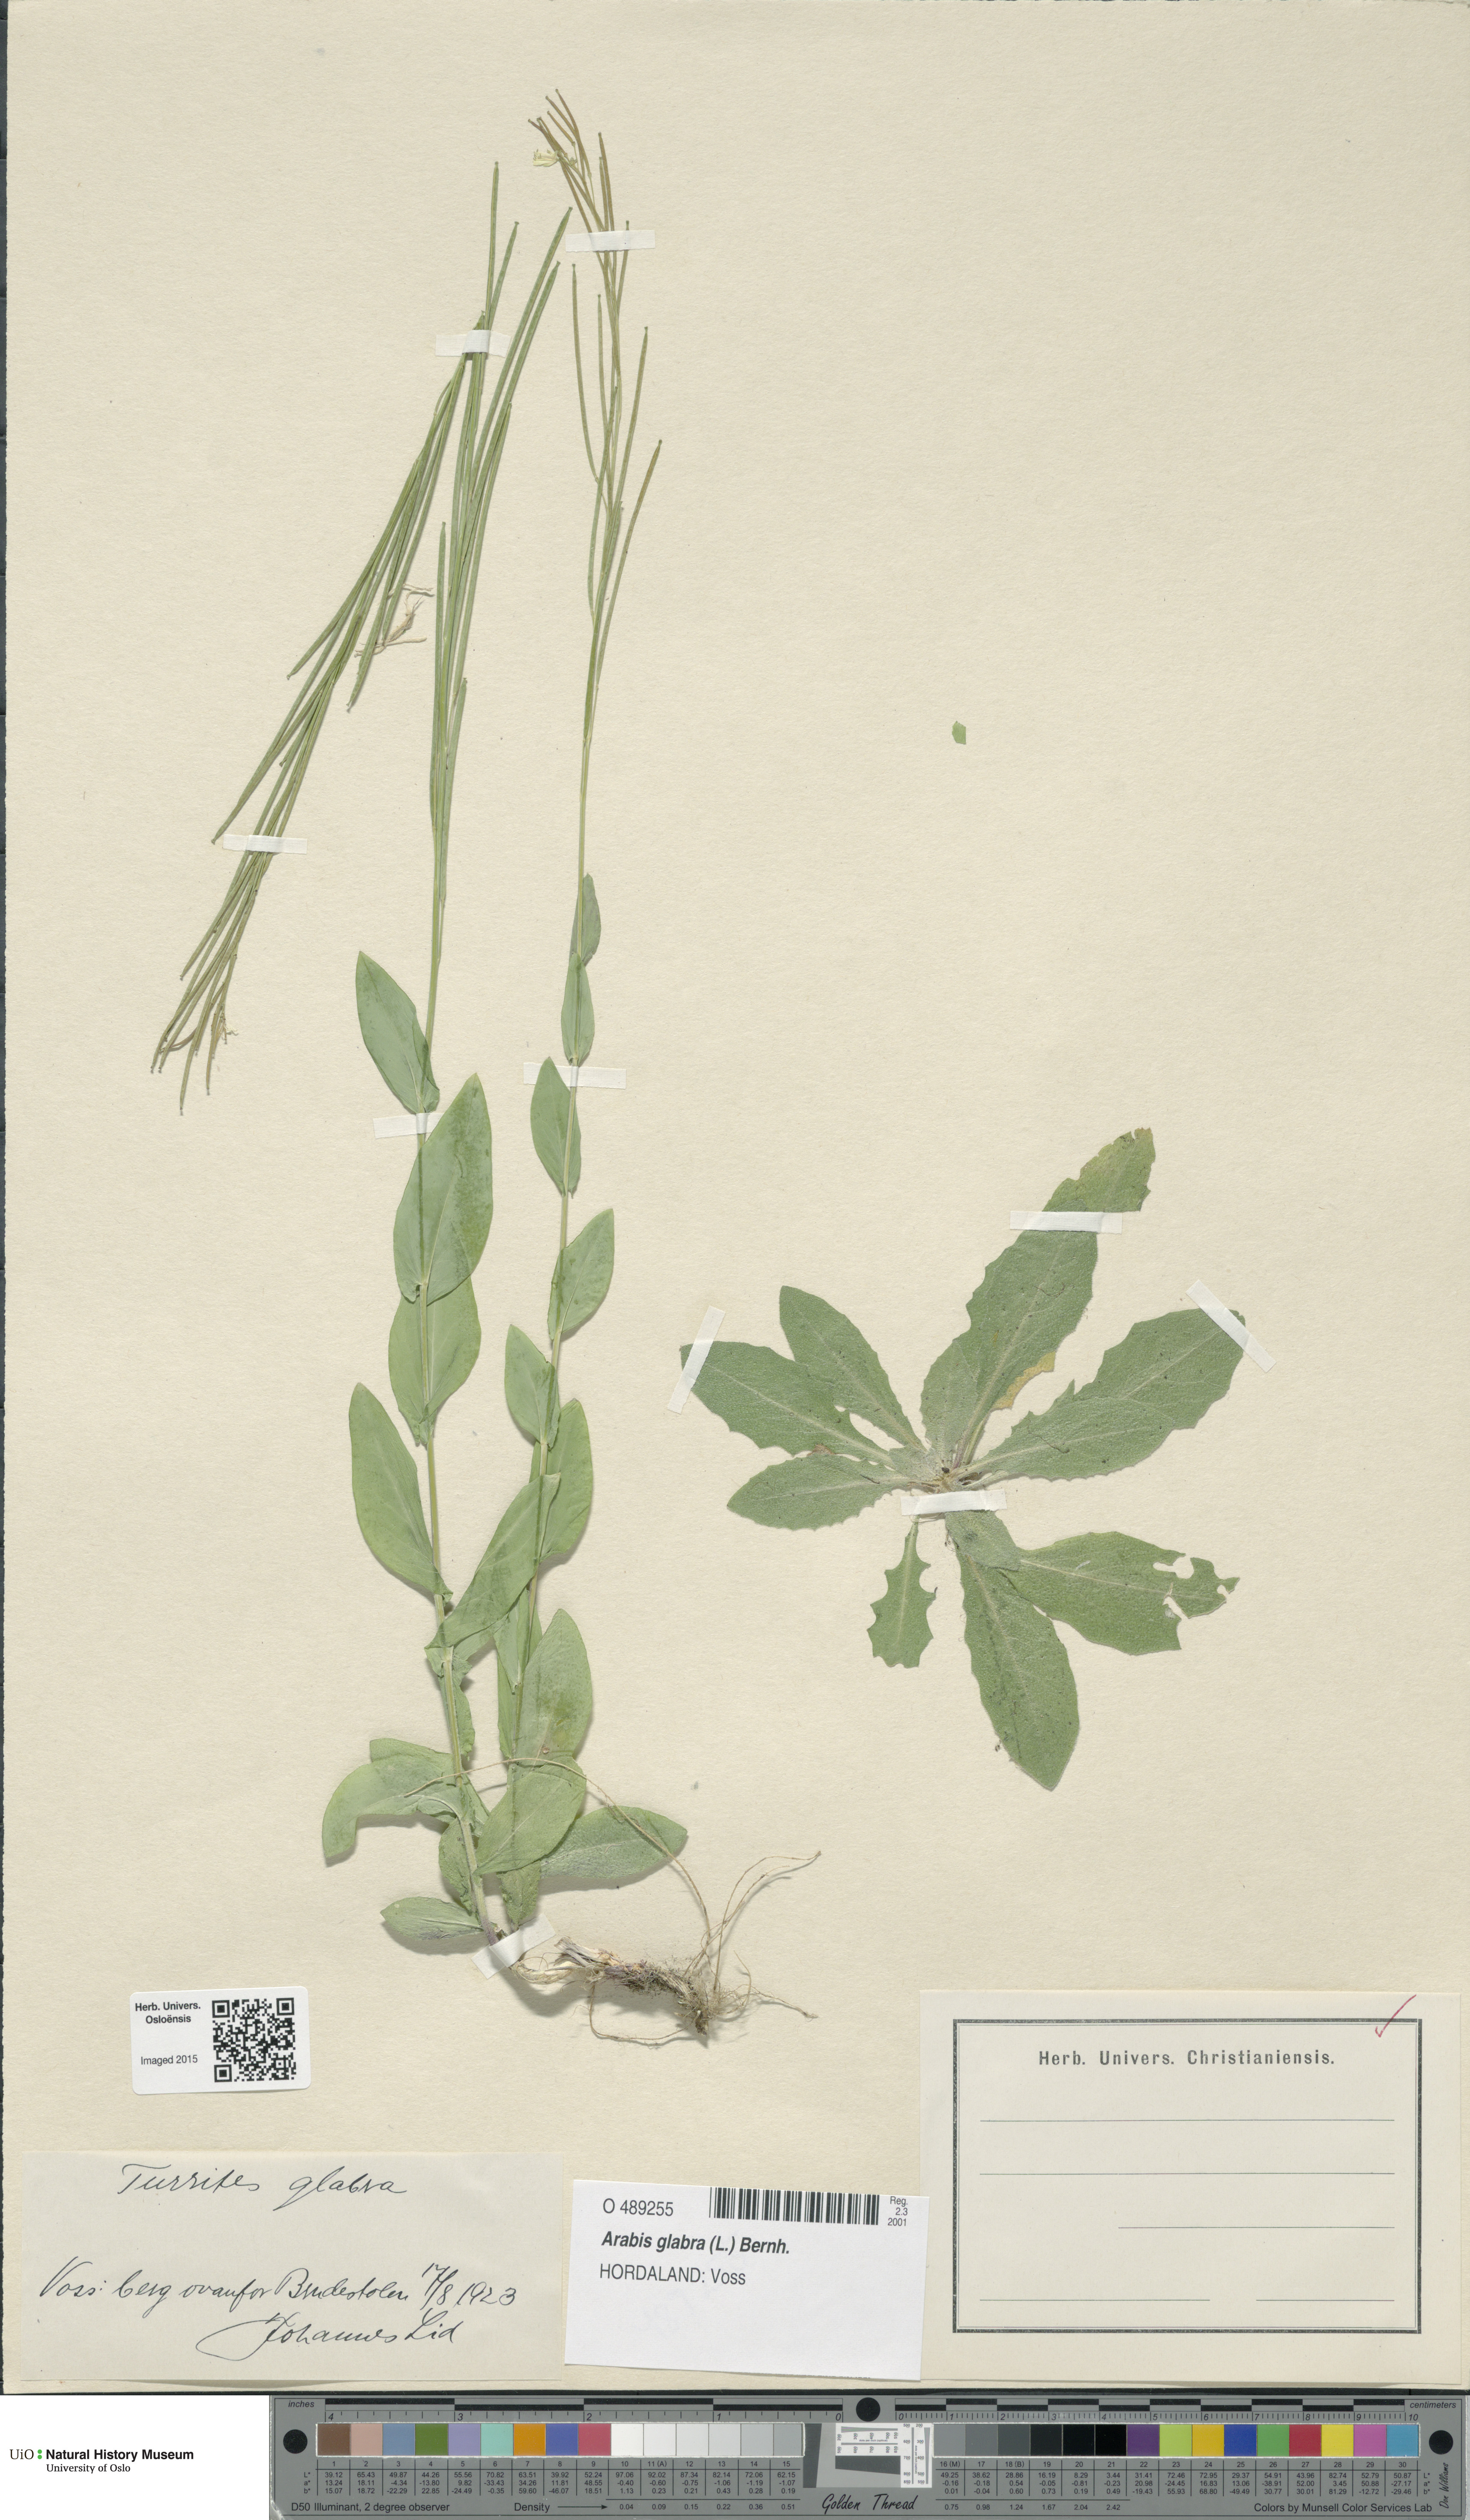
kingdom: Plantae
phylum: Tracheophyta
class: Magnoliopsida
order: Brassicales
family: Brassicaceae
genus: Turritis
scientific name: Turritis glabra
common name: Tower rockcress
